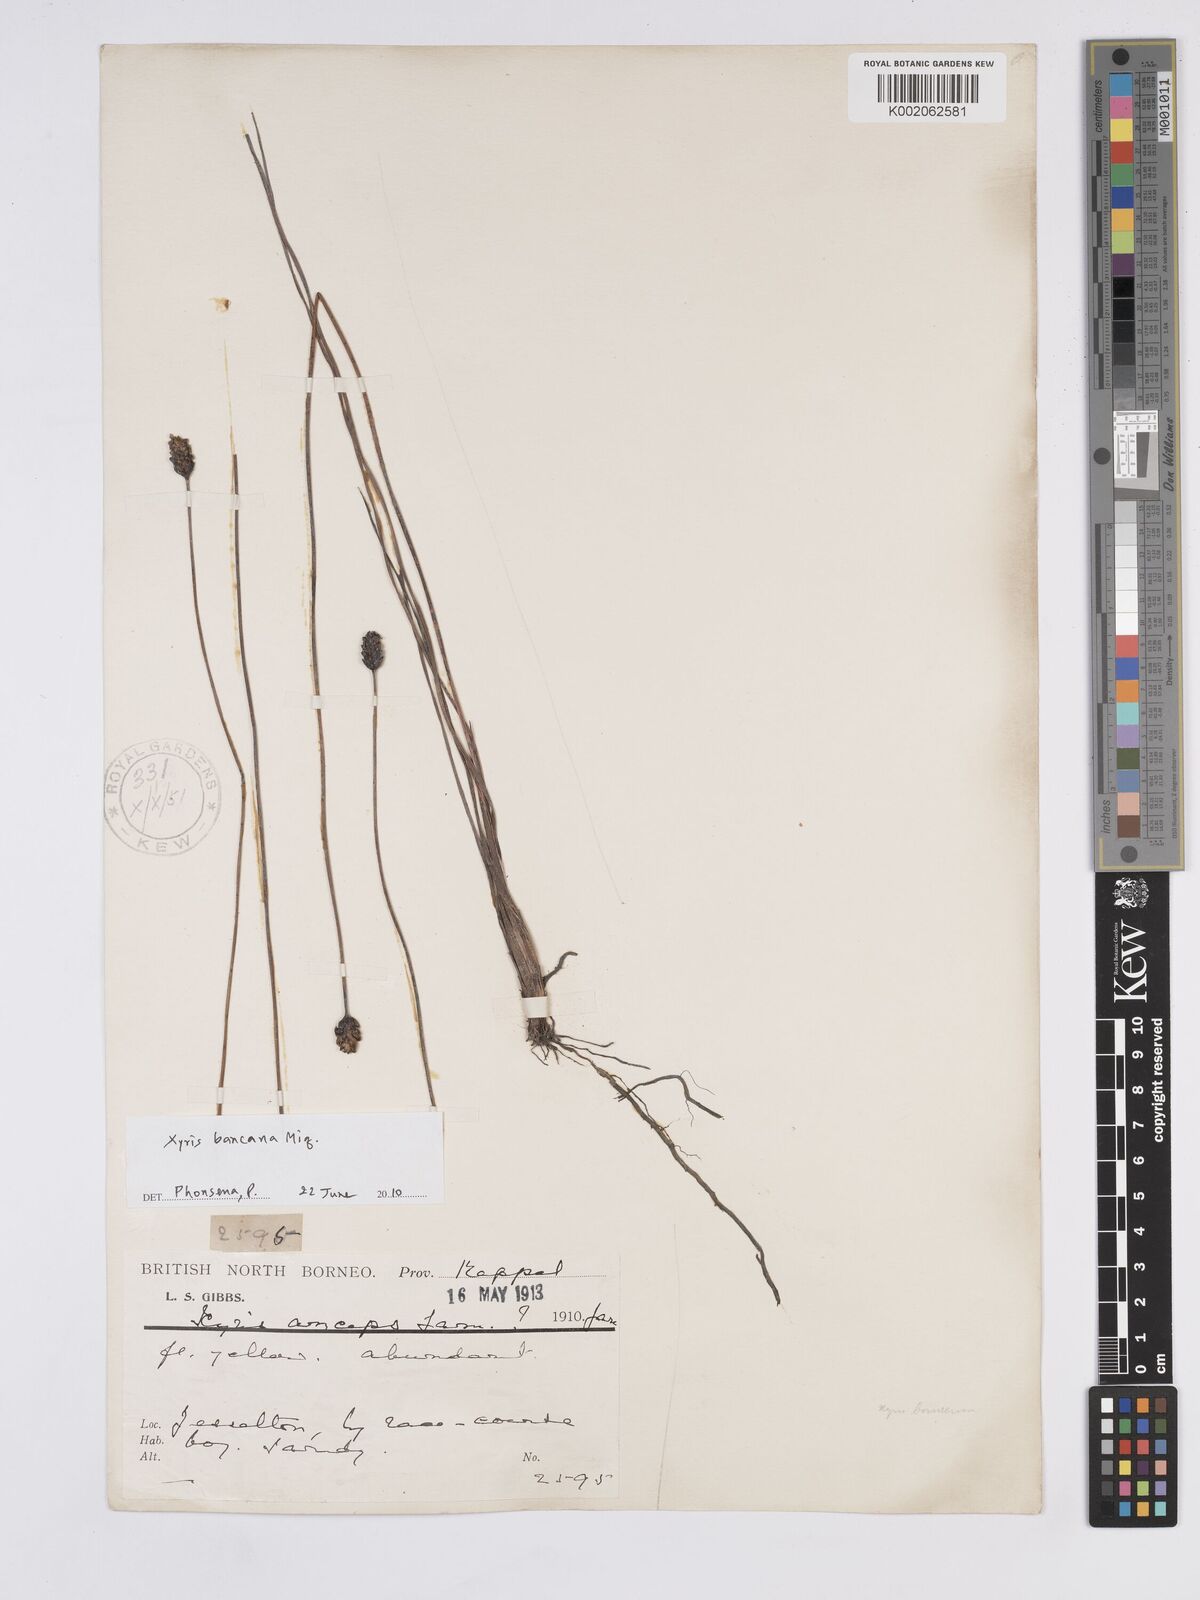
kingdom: Plantae
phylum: Tracheophyta
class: Liliopsida
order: Poales
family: Xyridaceae
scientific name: Xyridaceae
